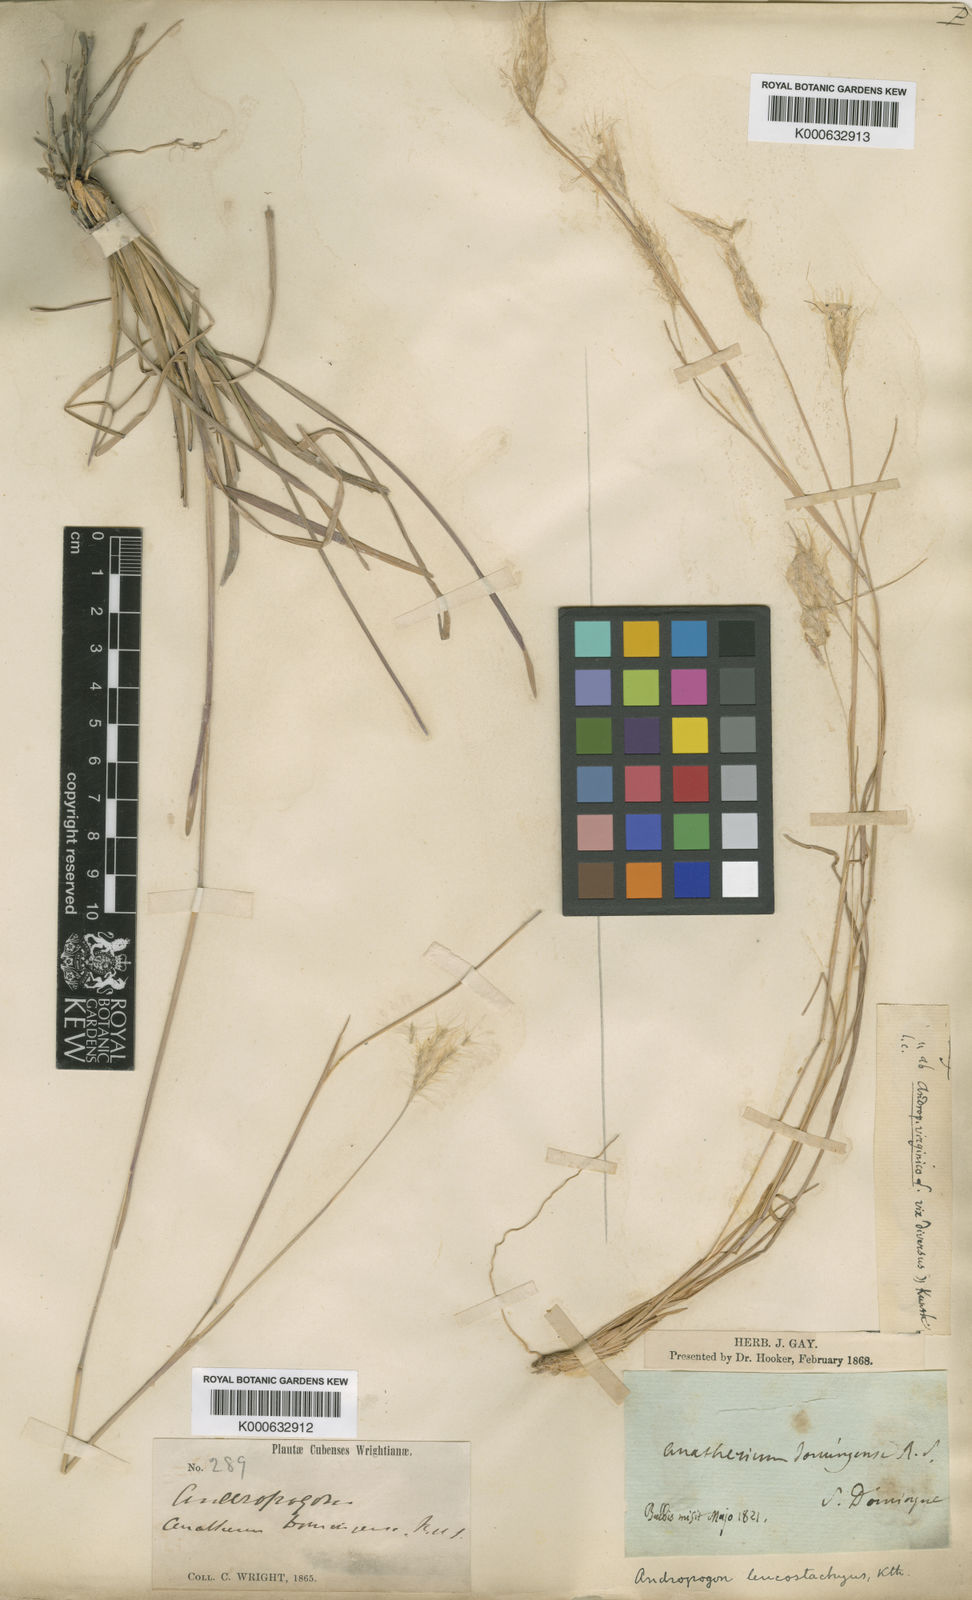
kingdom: Plantae
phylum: Tracheophyta
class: Liliopsida
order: Poales
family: Poaceae
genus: Andropogon
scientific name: Andropogon leucostachyus
